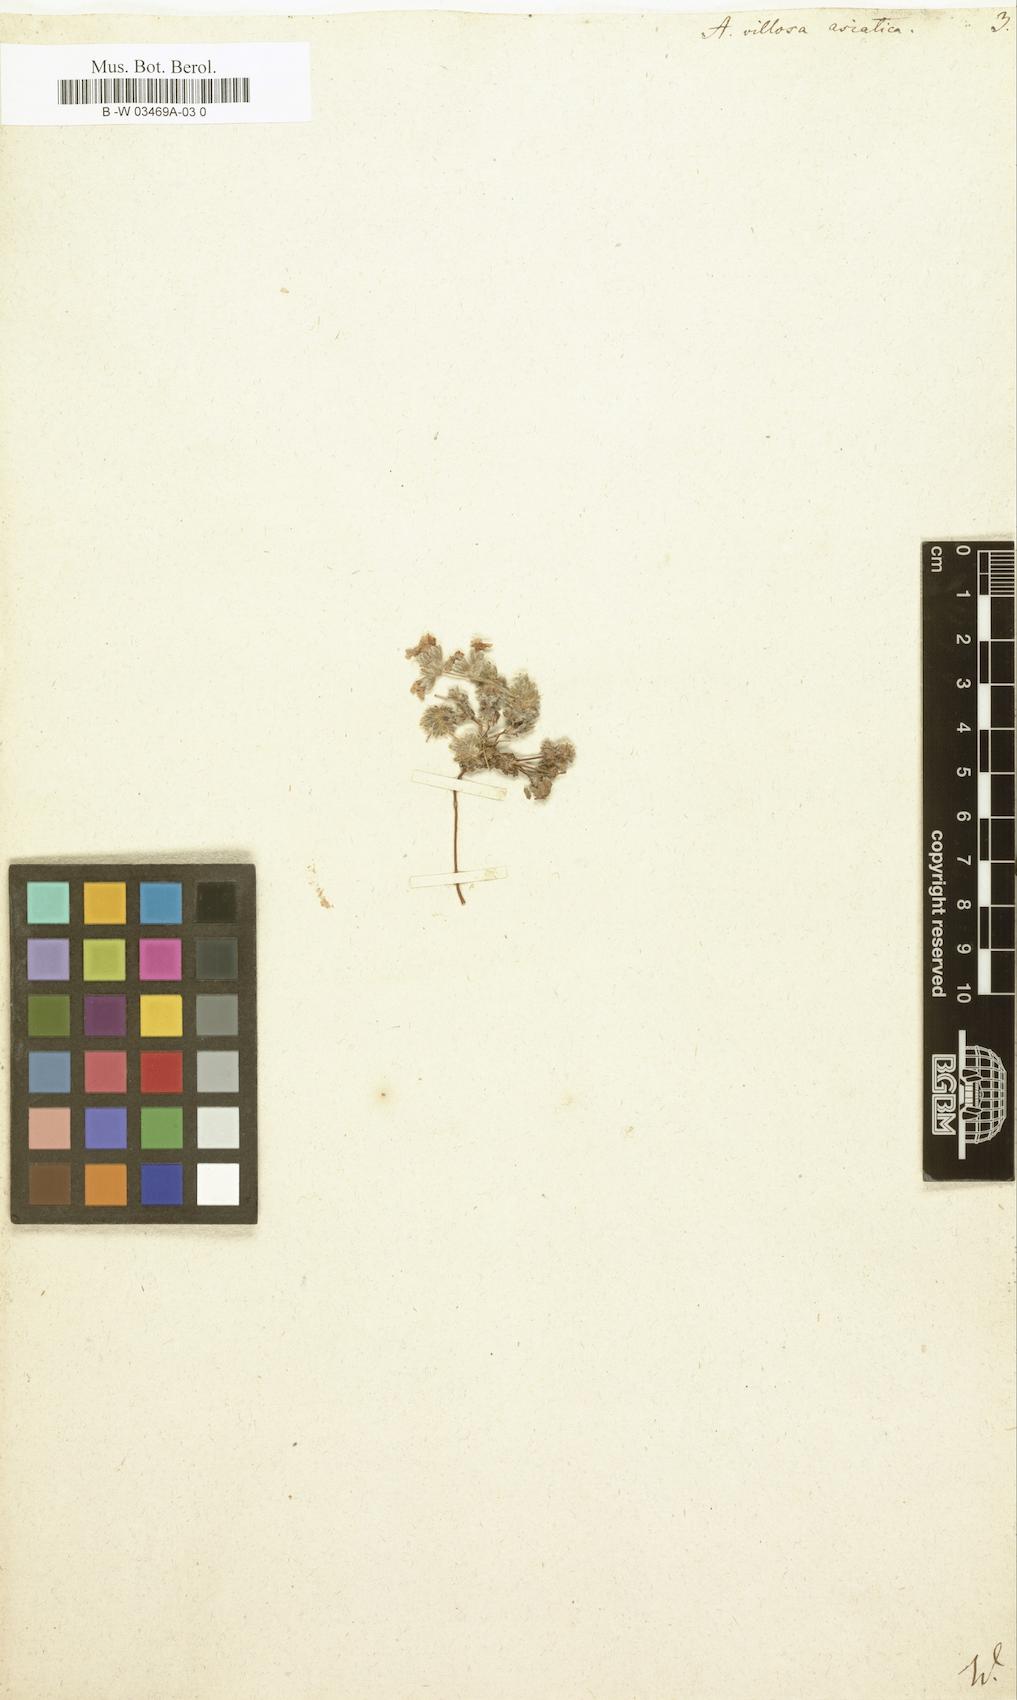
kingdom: Plantae
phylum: Tracheophyta
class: Magnoliopsida
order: Ericales
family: Primulaceae
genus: Androsace
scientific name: Androsace villosa
